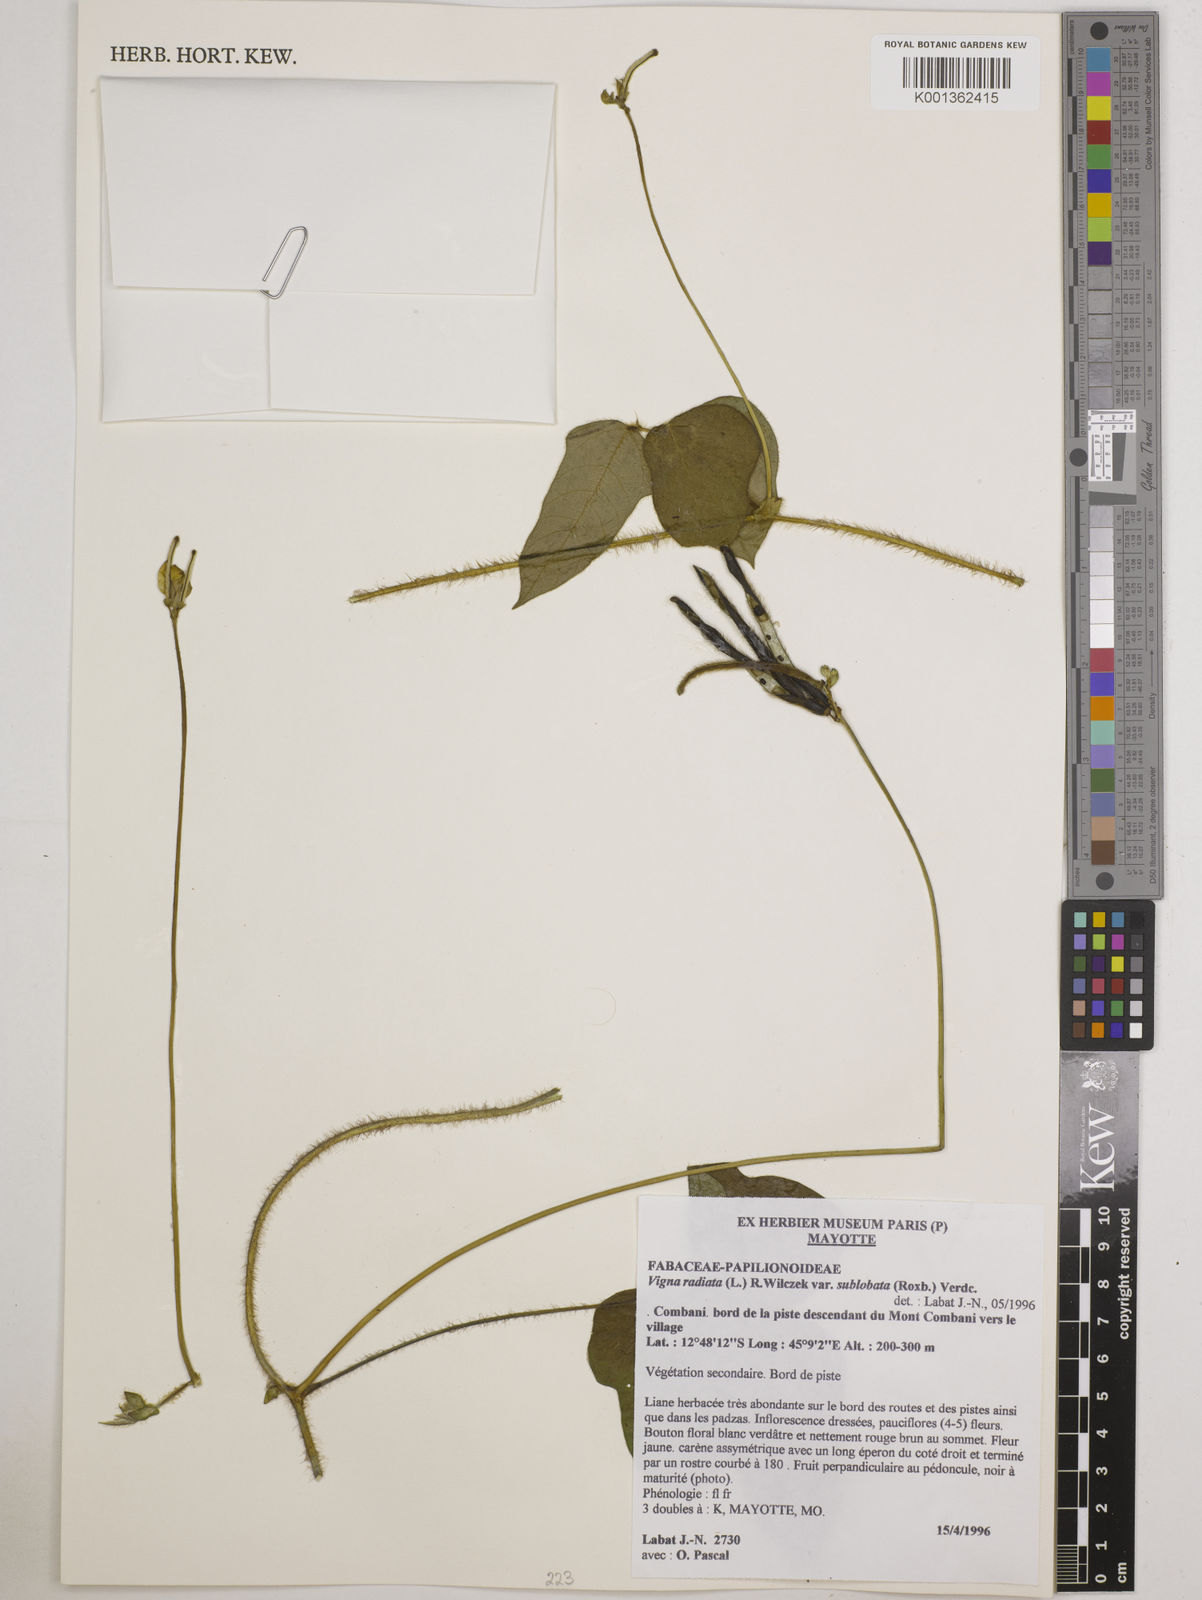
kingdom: Plantae
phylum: Tracheophyta
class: Magnoliopsida
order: Fabales
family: Fabaceae
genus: Vigna
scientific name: Vigna radiata
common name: Mung-bean
